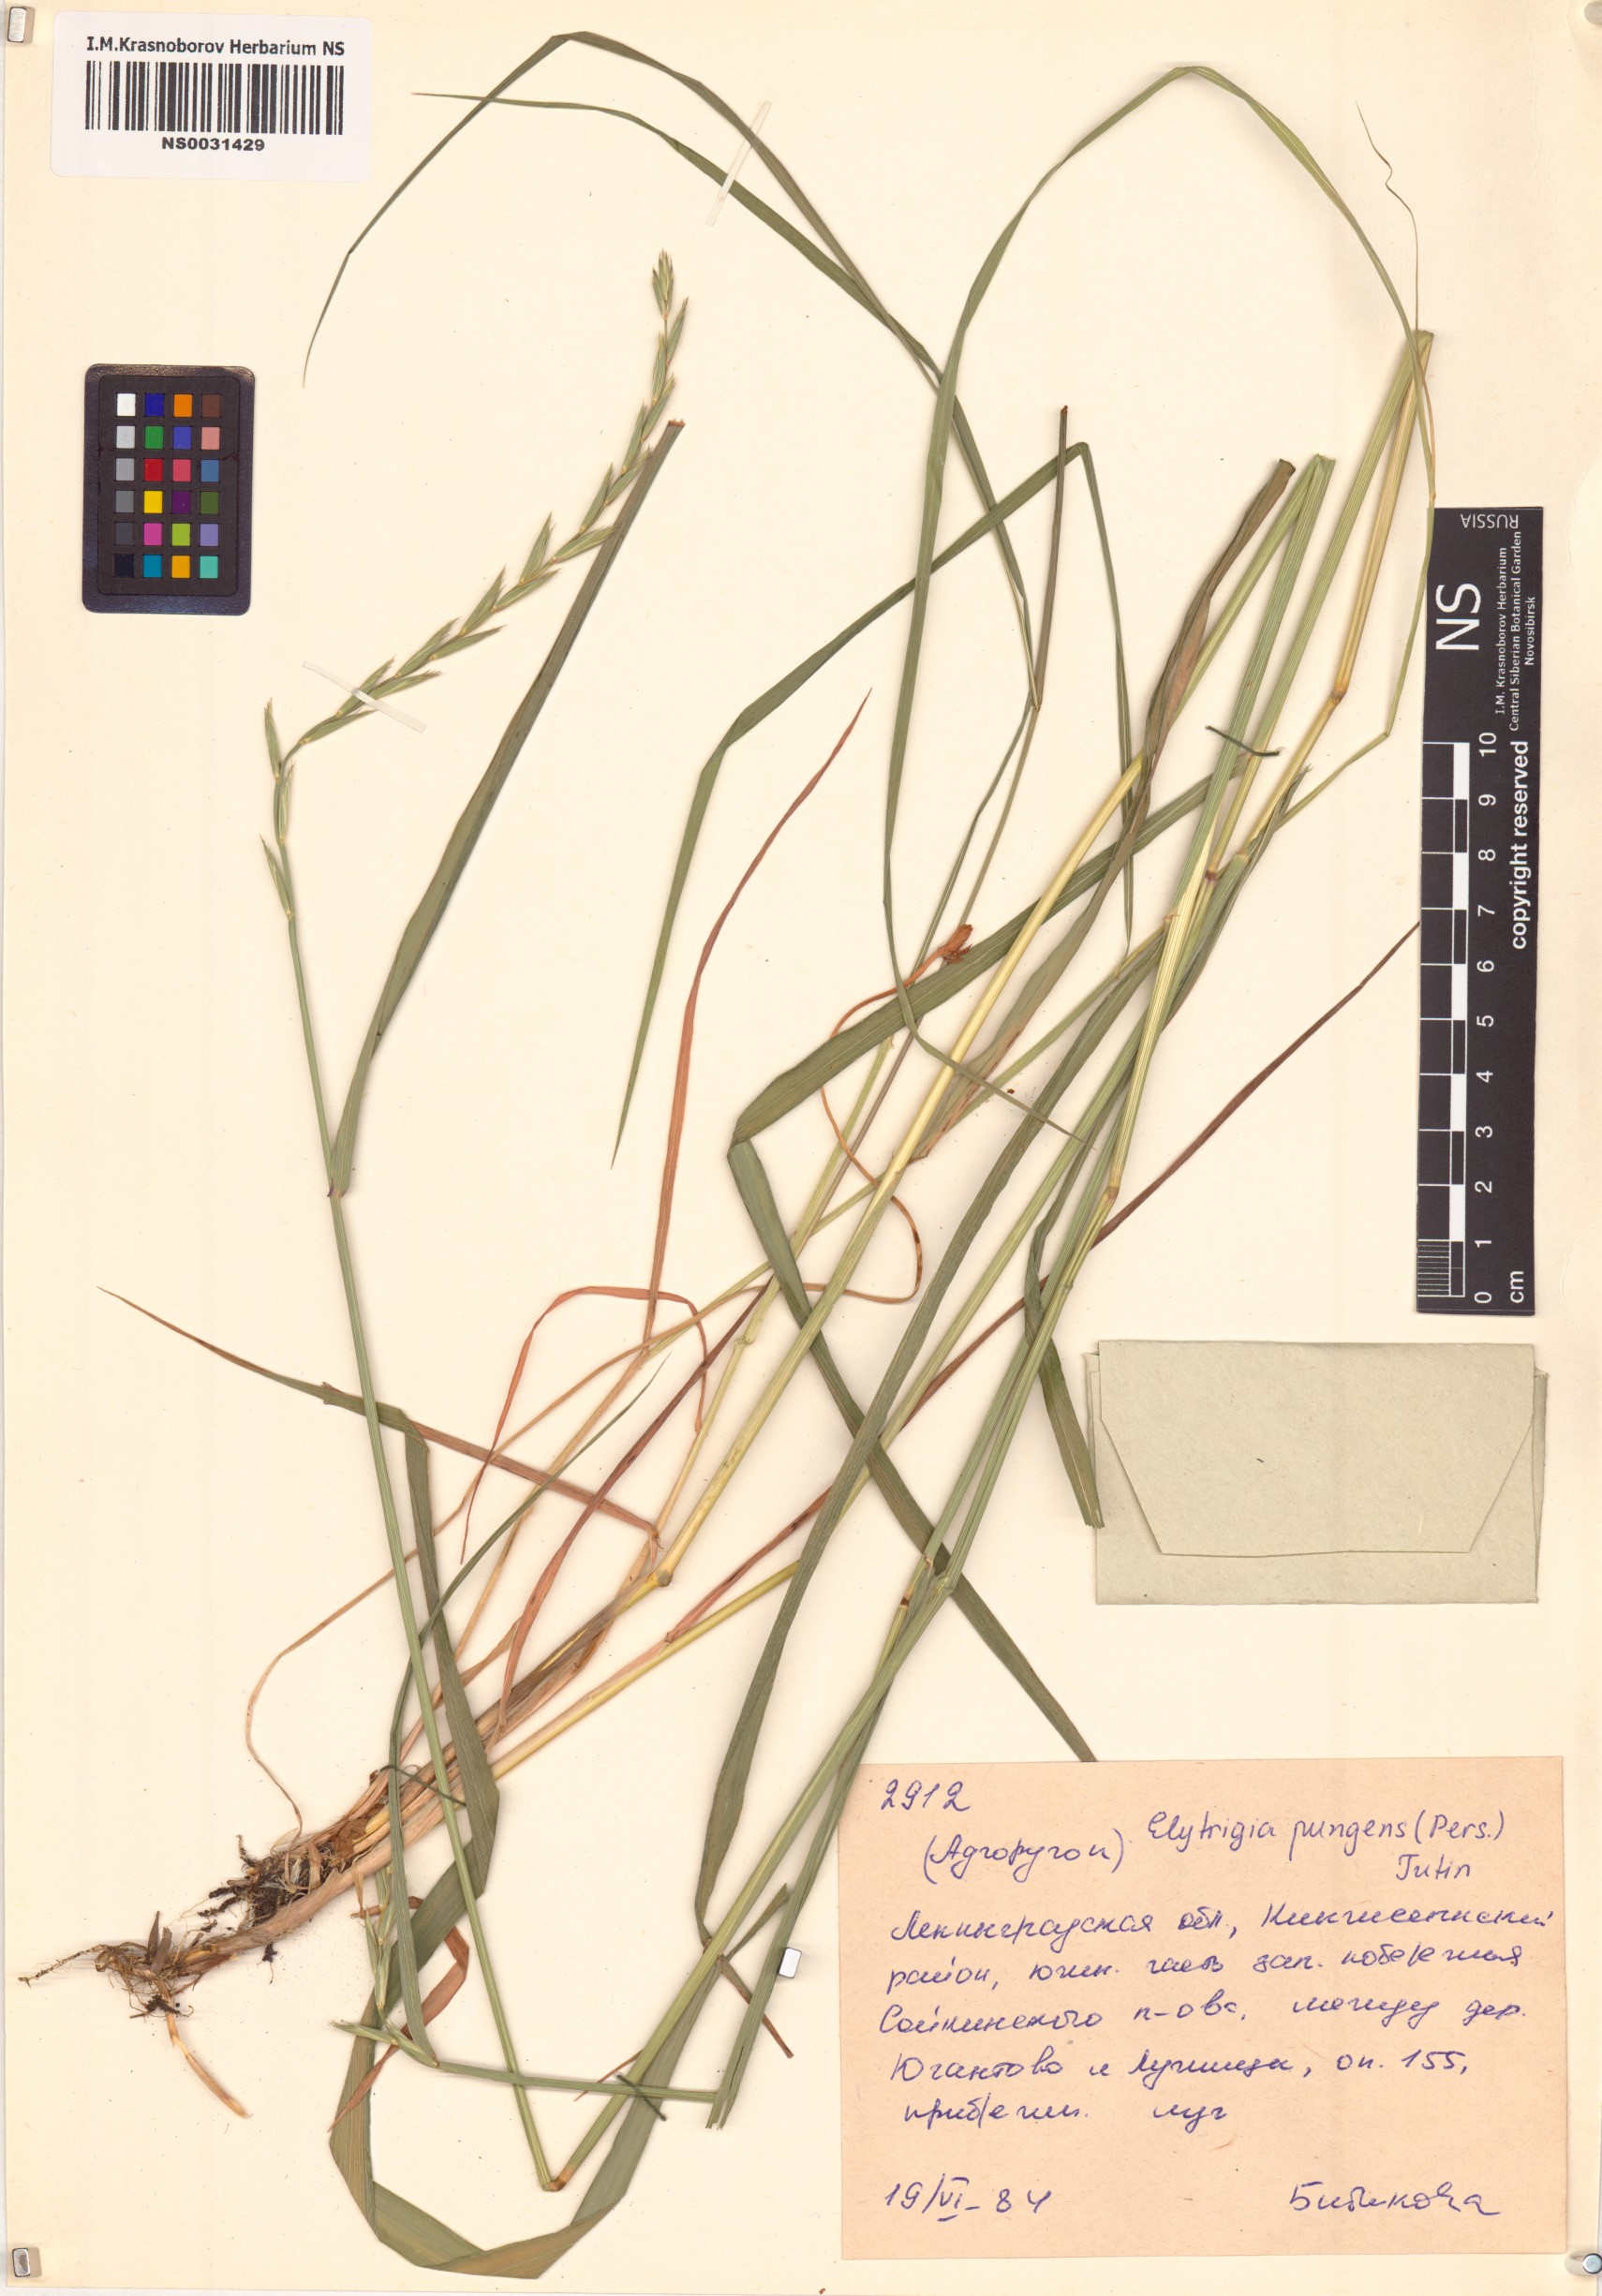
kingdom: Plantae
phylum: Tracheophyta
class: Liliopsida
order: Poales
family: Poaceae
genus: Elymus
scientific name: Elymus pungens
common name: Sea couch
